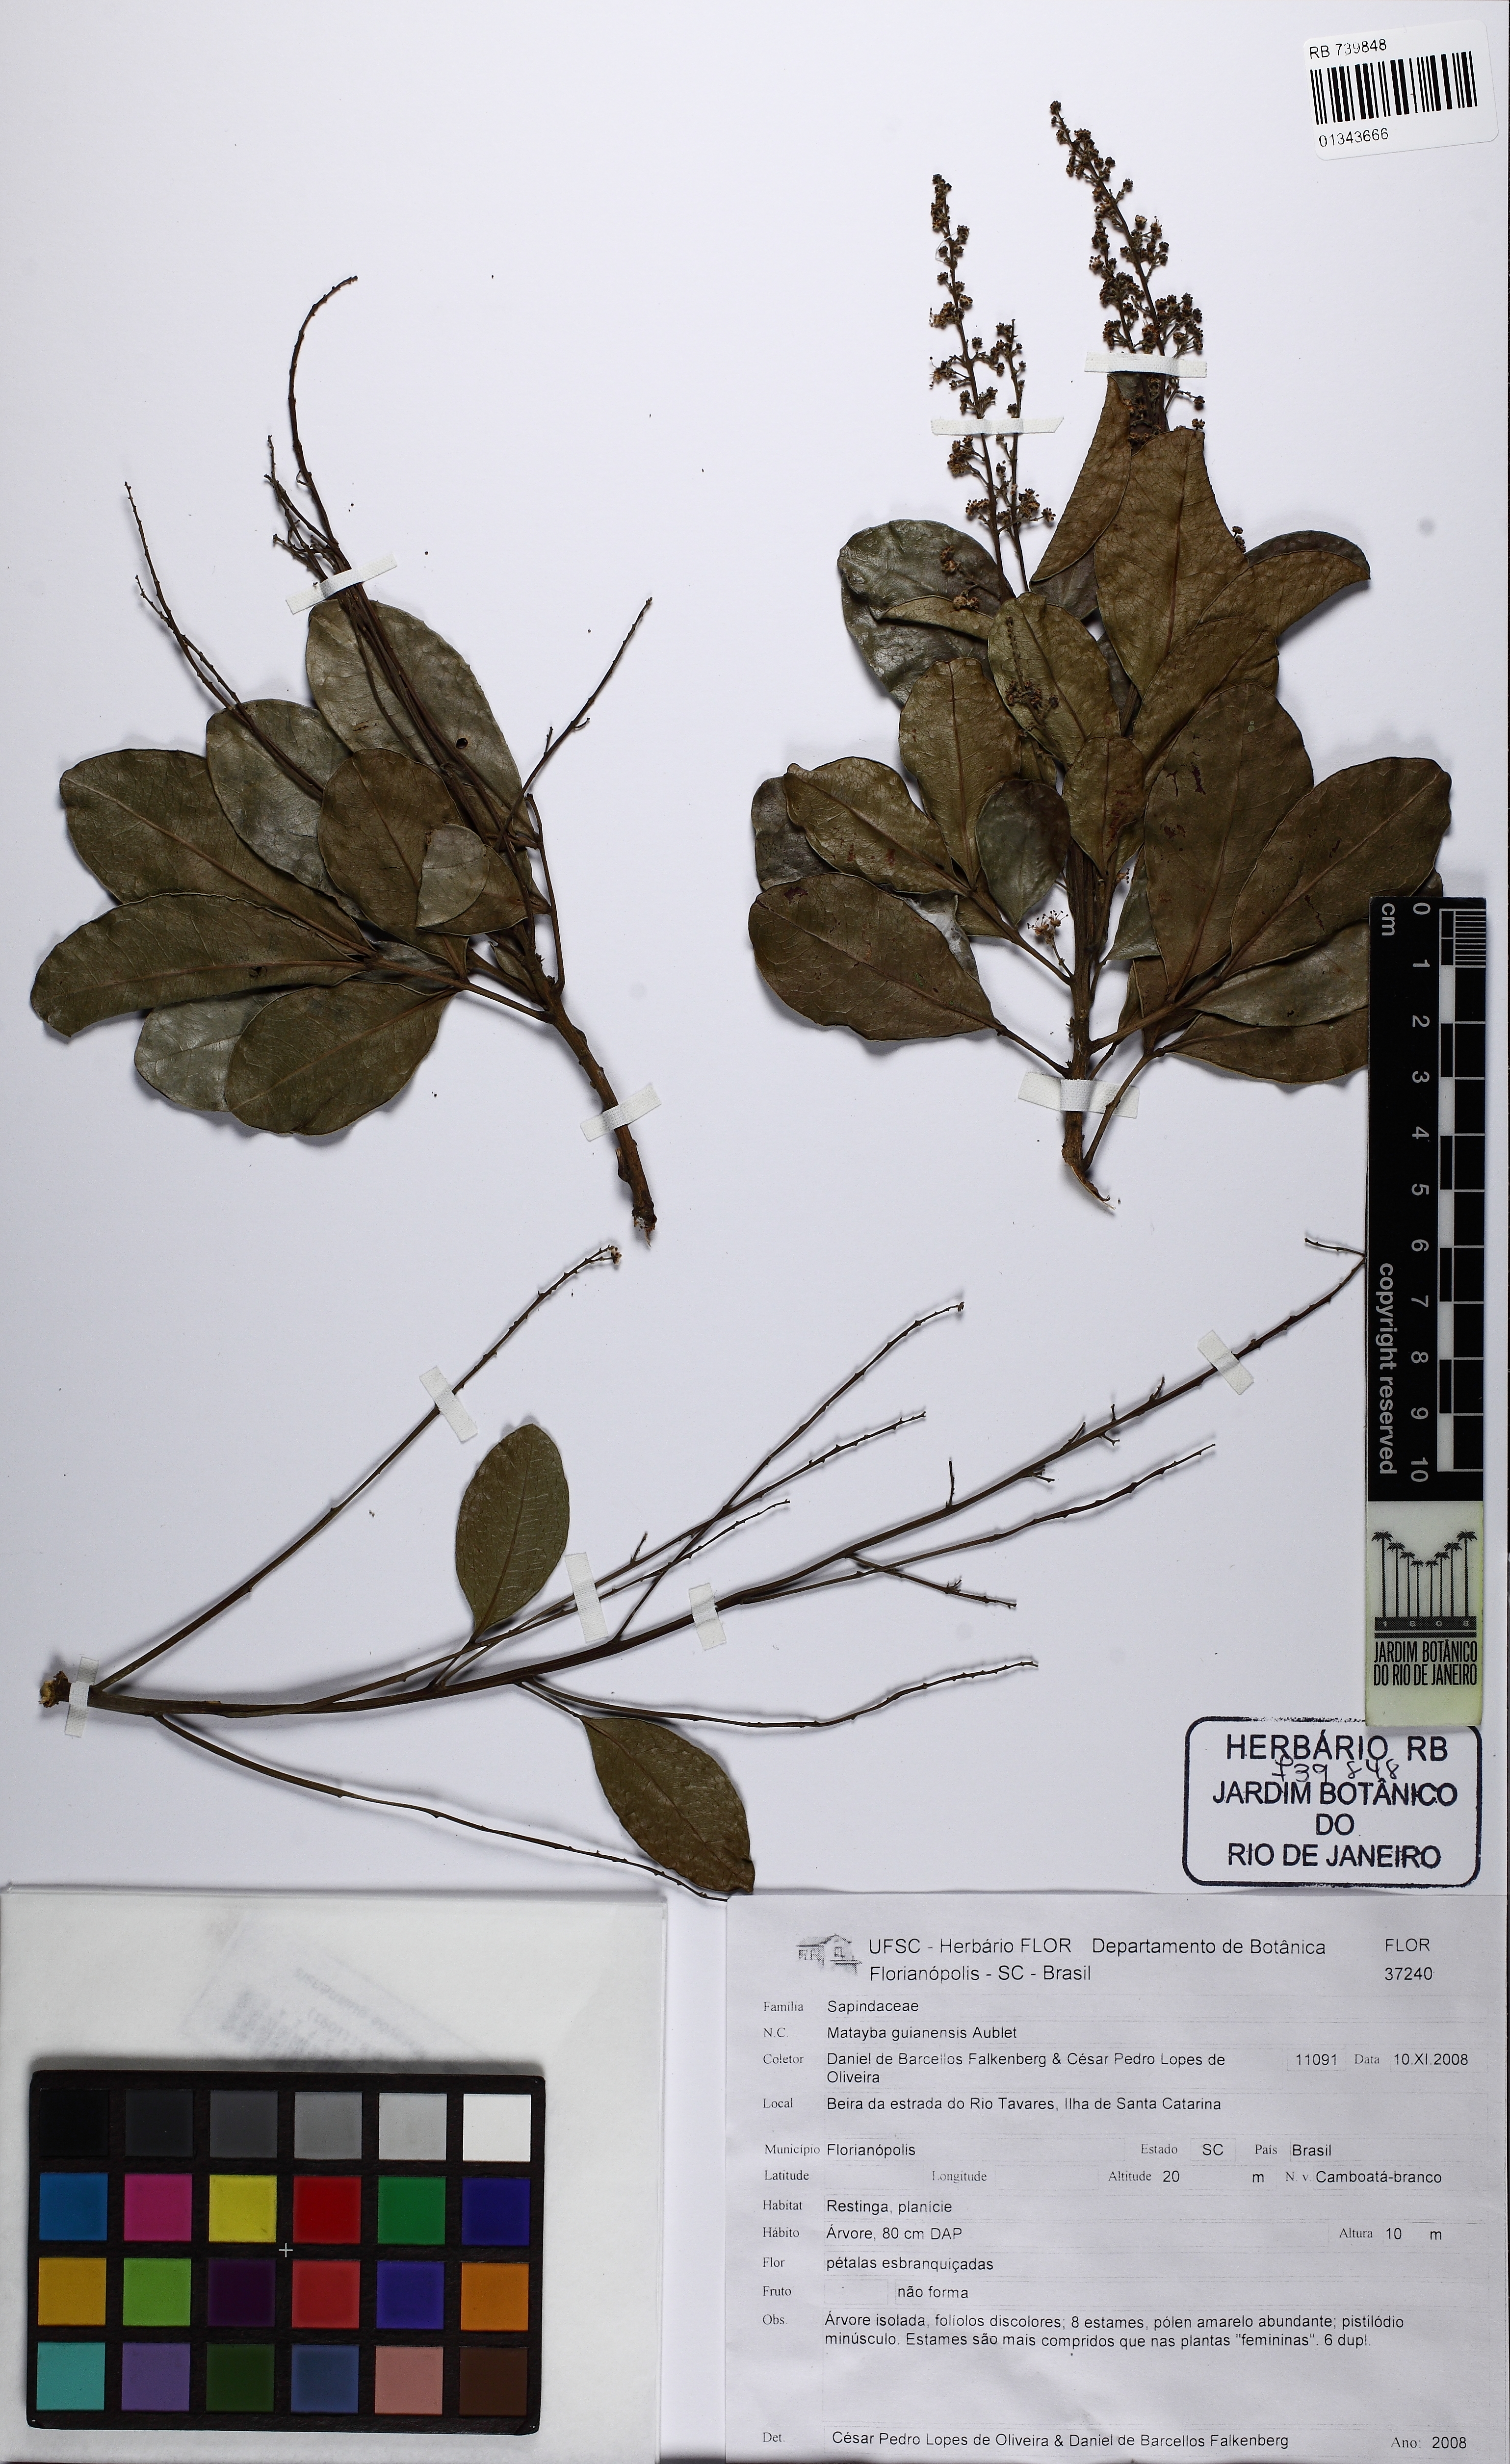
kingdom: Plantae
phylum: Tracheophyta
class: Magnoliopsida
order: Sapindales
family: Sapindaceae
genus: Matayba
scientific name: Matayba guianensis
